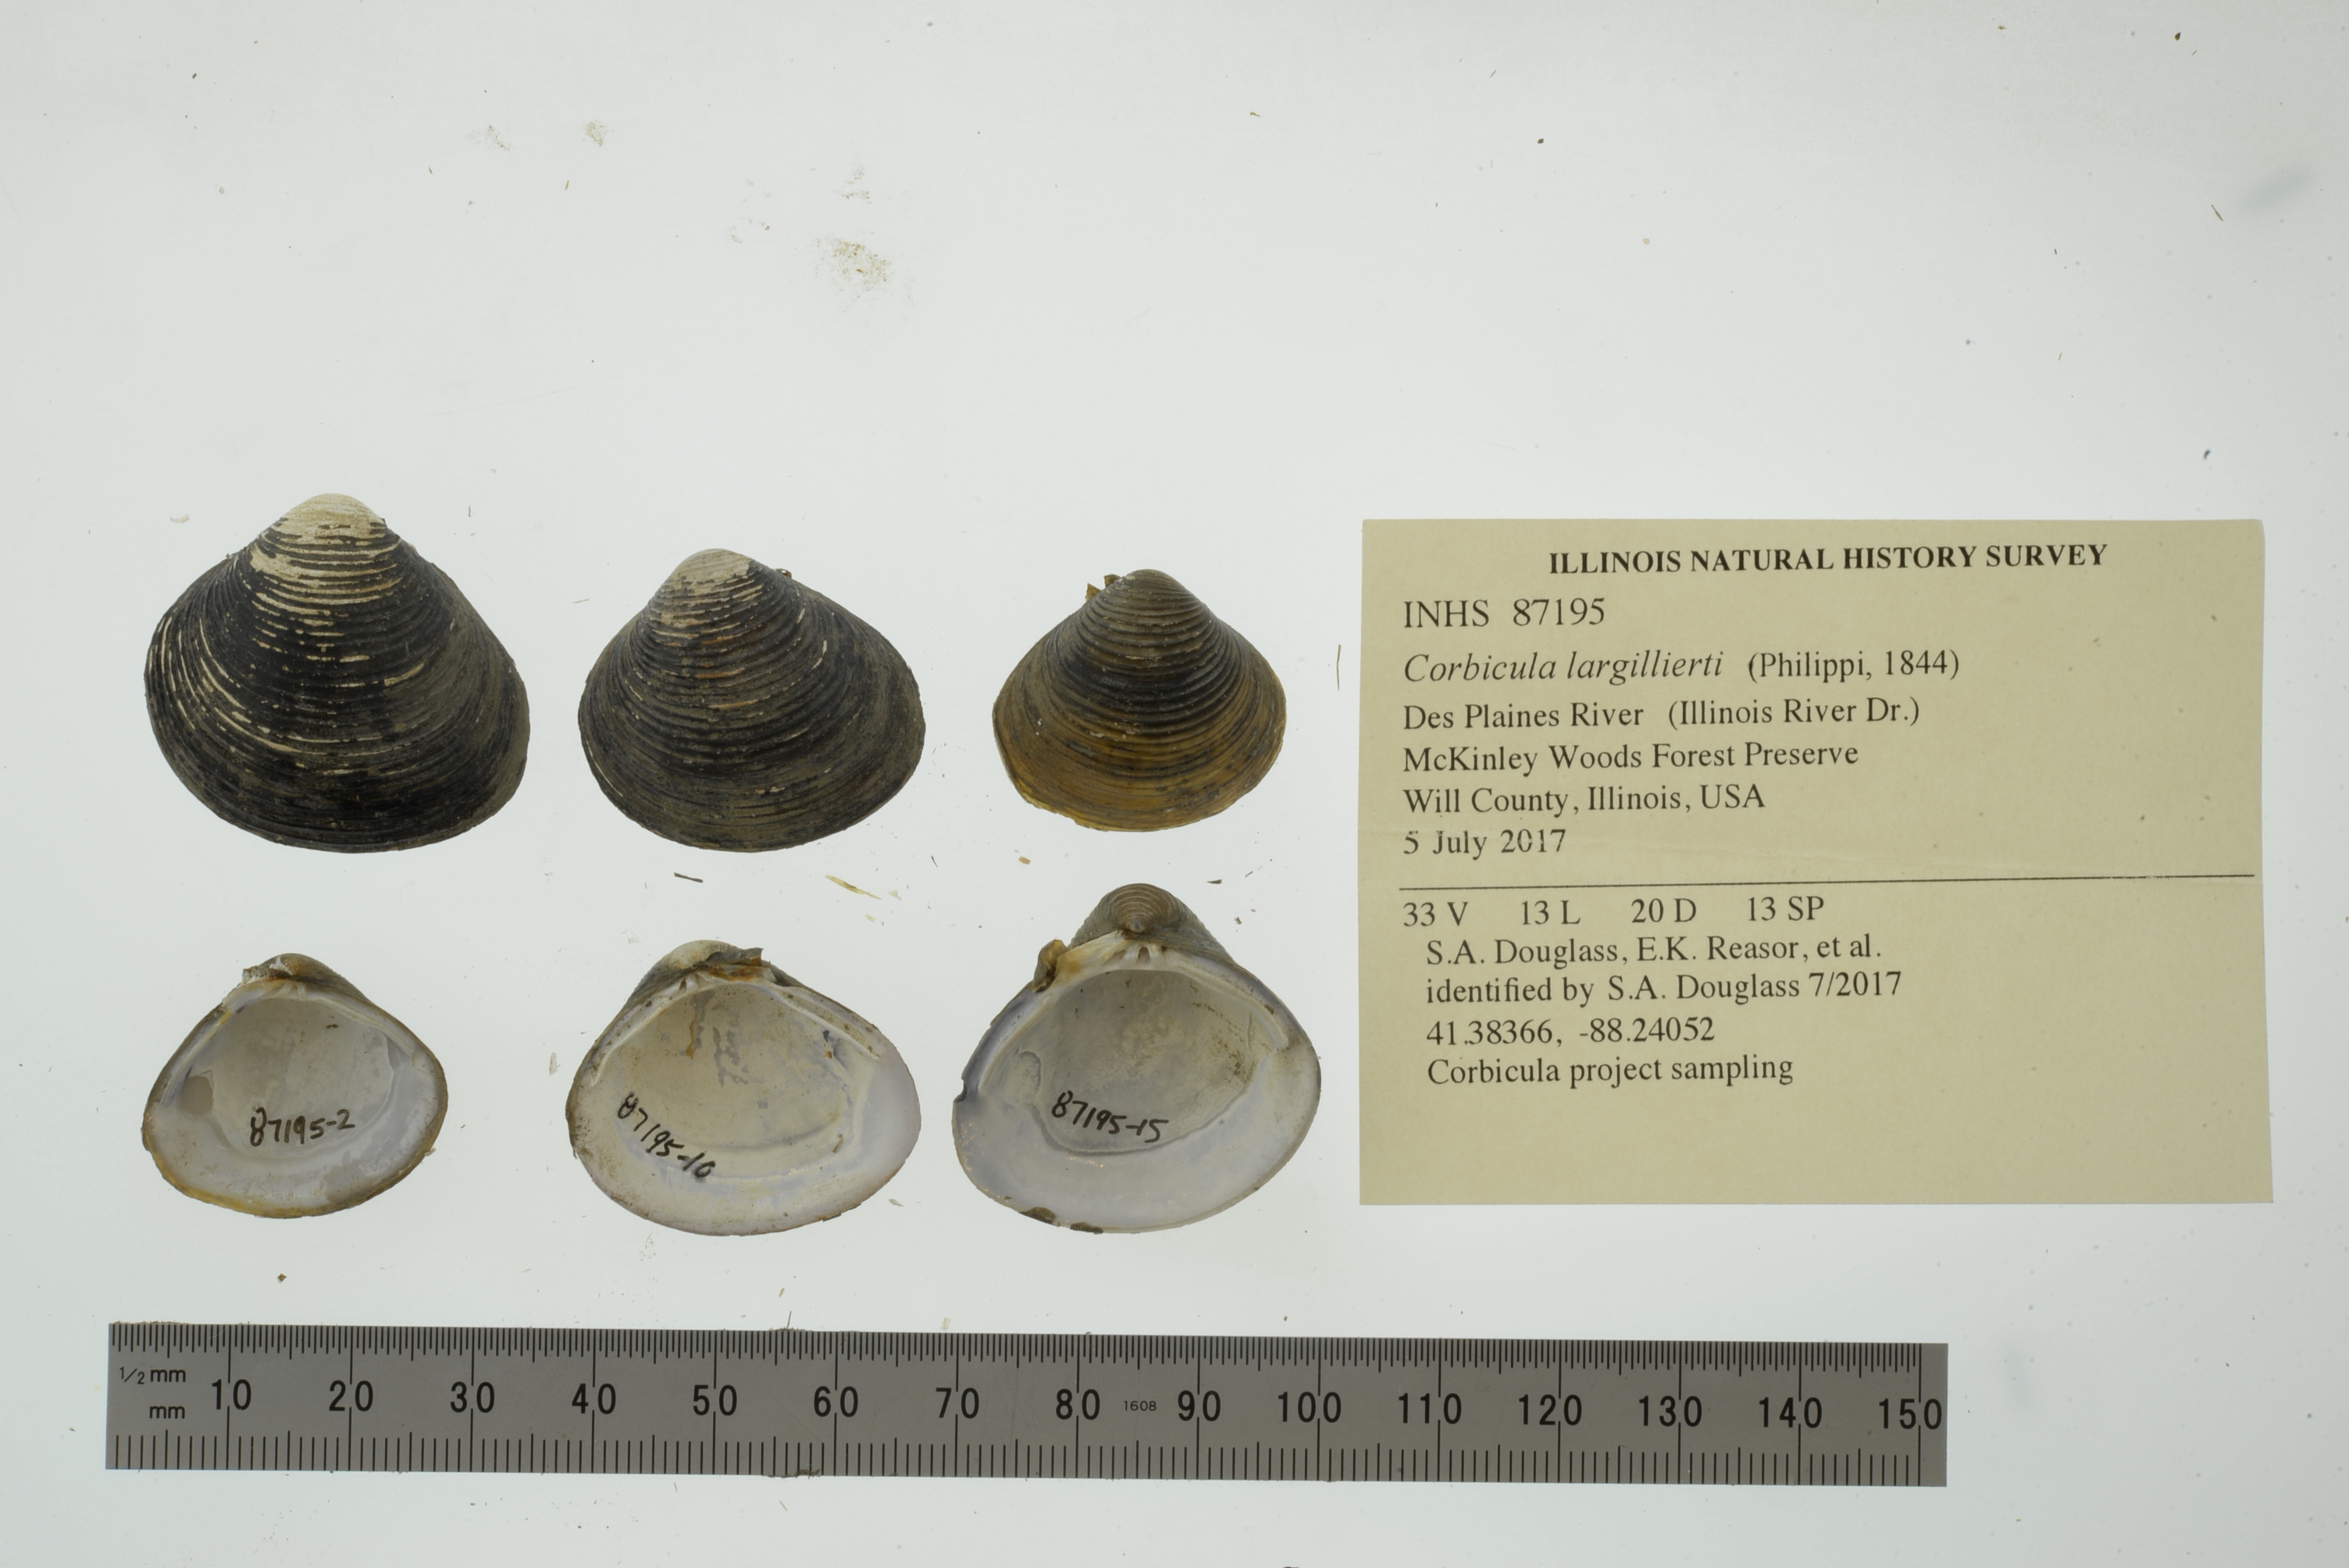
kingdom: Animalia
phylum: Mollusca
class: Bivalvia
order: Venerida
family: Cyrenidae
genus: Corbicula
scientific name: Corbicula largillierti
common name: Purple asian clam
